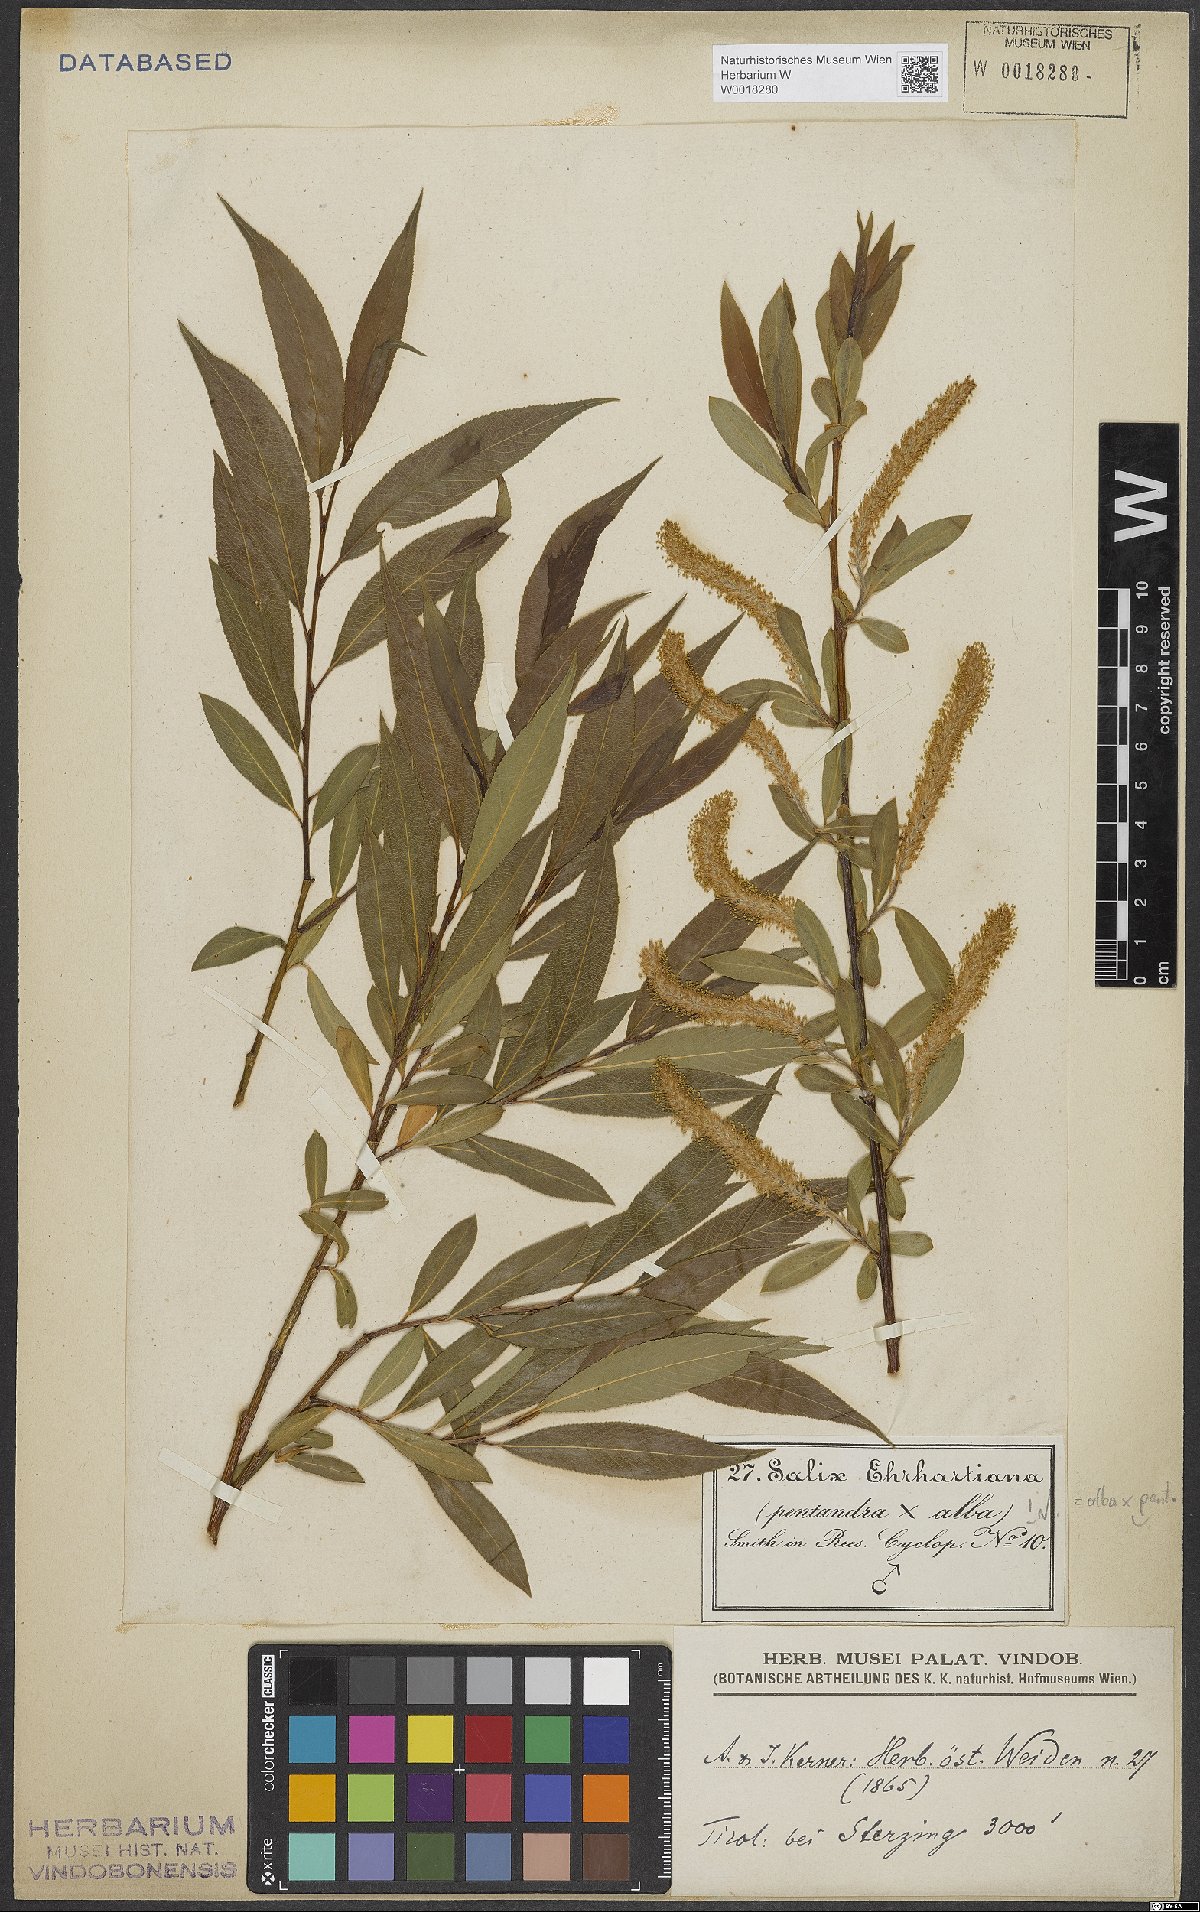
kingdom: Plantae
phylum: Tracheophyta
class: Magnoliopsida
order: Malpighiales
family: Salicaceae
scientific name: Salicaceae
